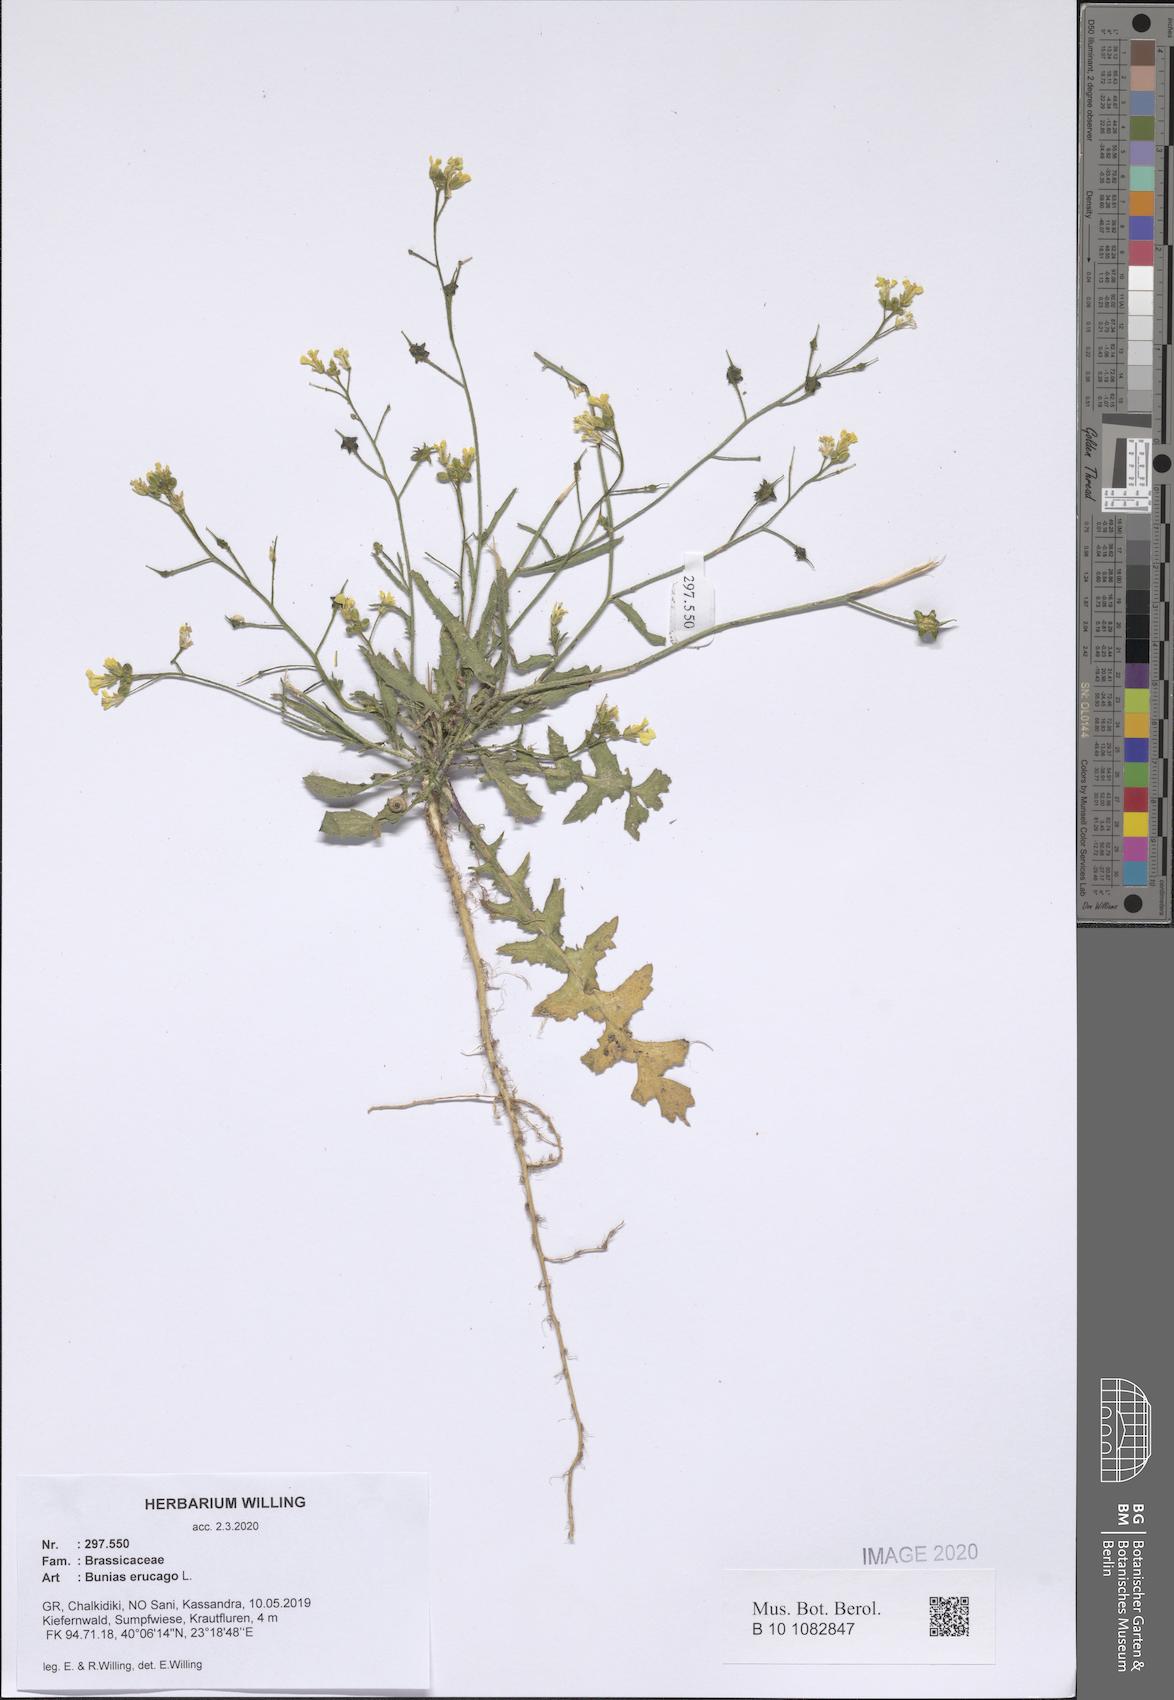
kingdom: Plantae
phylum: Tracheophyta
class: Magnoliopsida
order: Brassicales
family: Brassicaceae
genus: Bunias
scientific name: Bunias erucago
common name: Southern warty-cabbage
